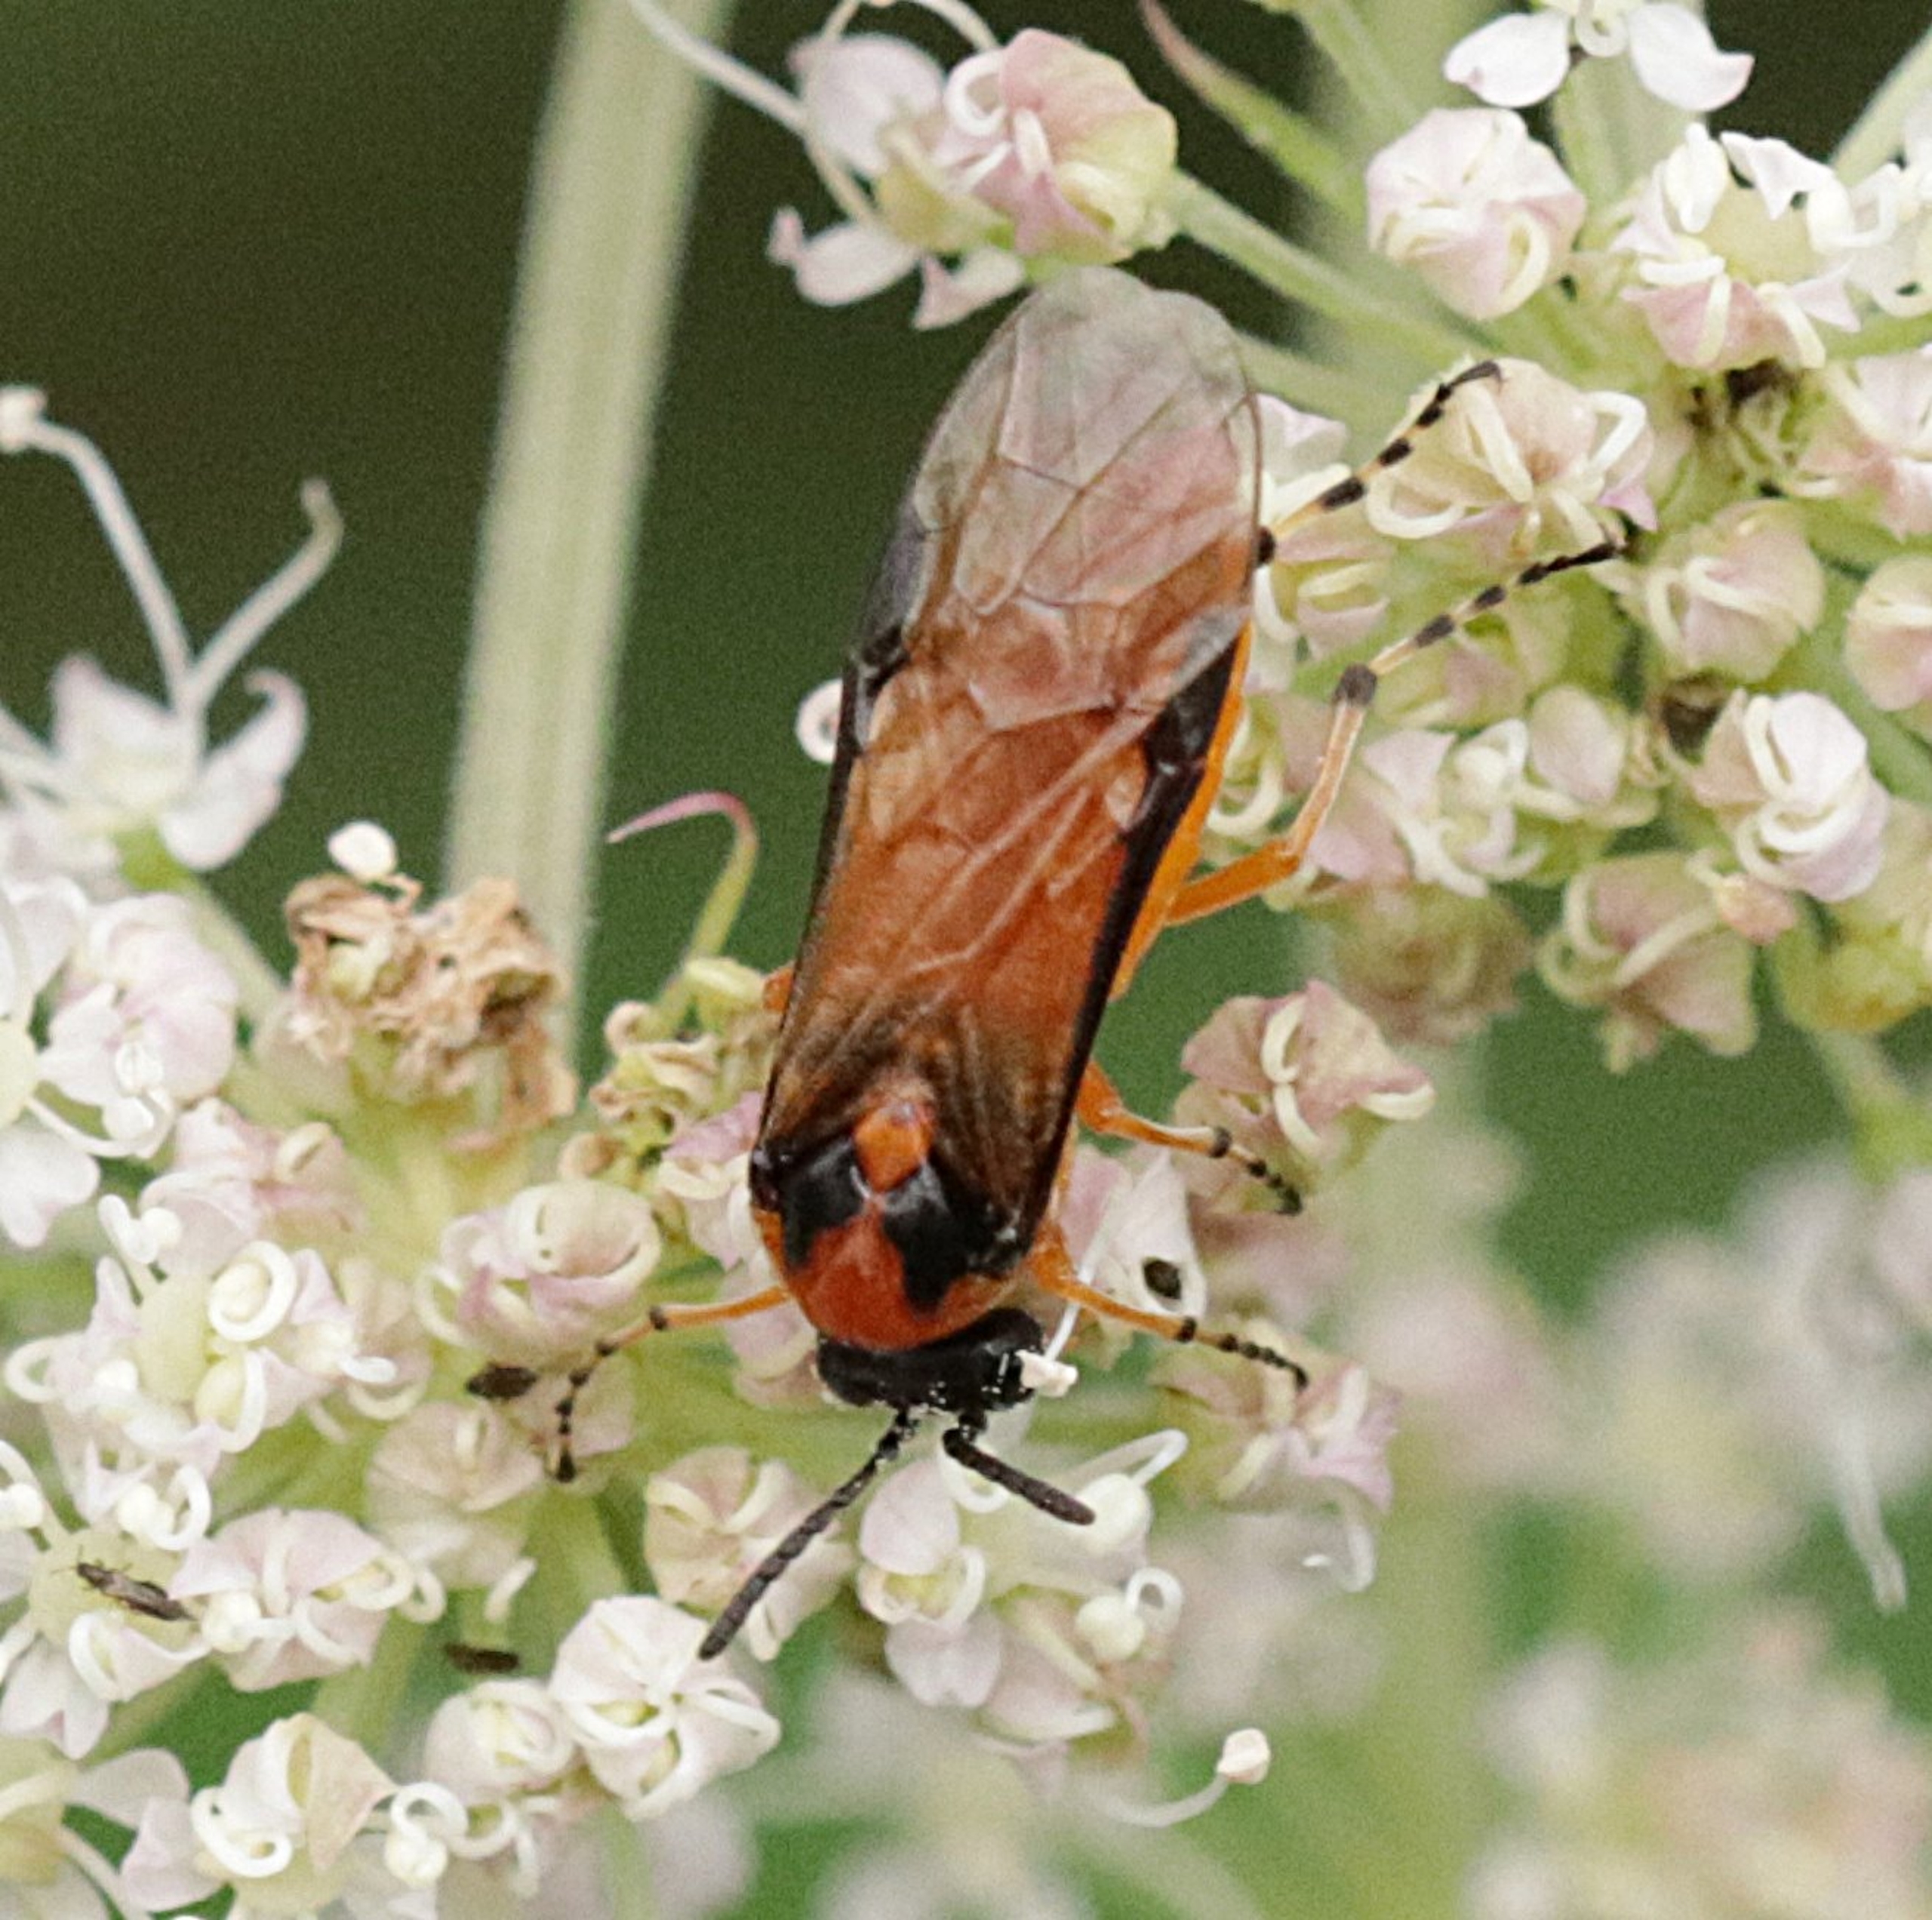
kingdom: Animalia
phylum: Arthropoda
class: Insecta
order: Hymenoptera
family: Tenthredinidae
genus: Athalia
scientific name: Athalia rosae
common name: Kålbladhveps
